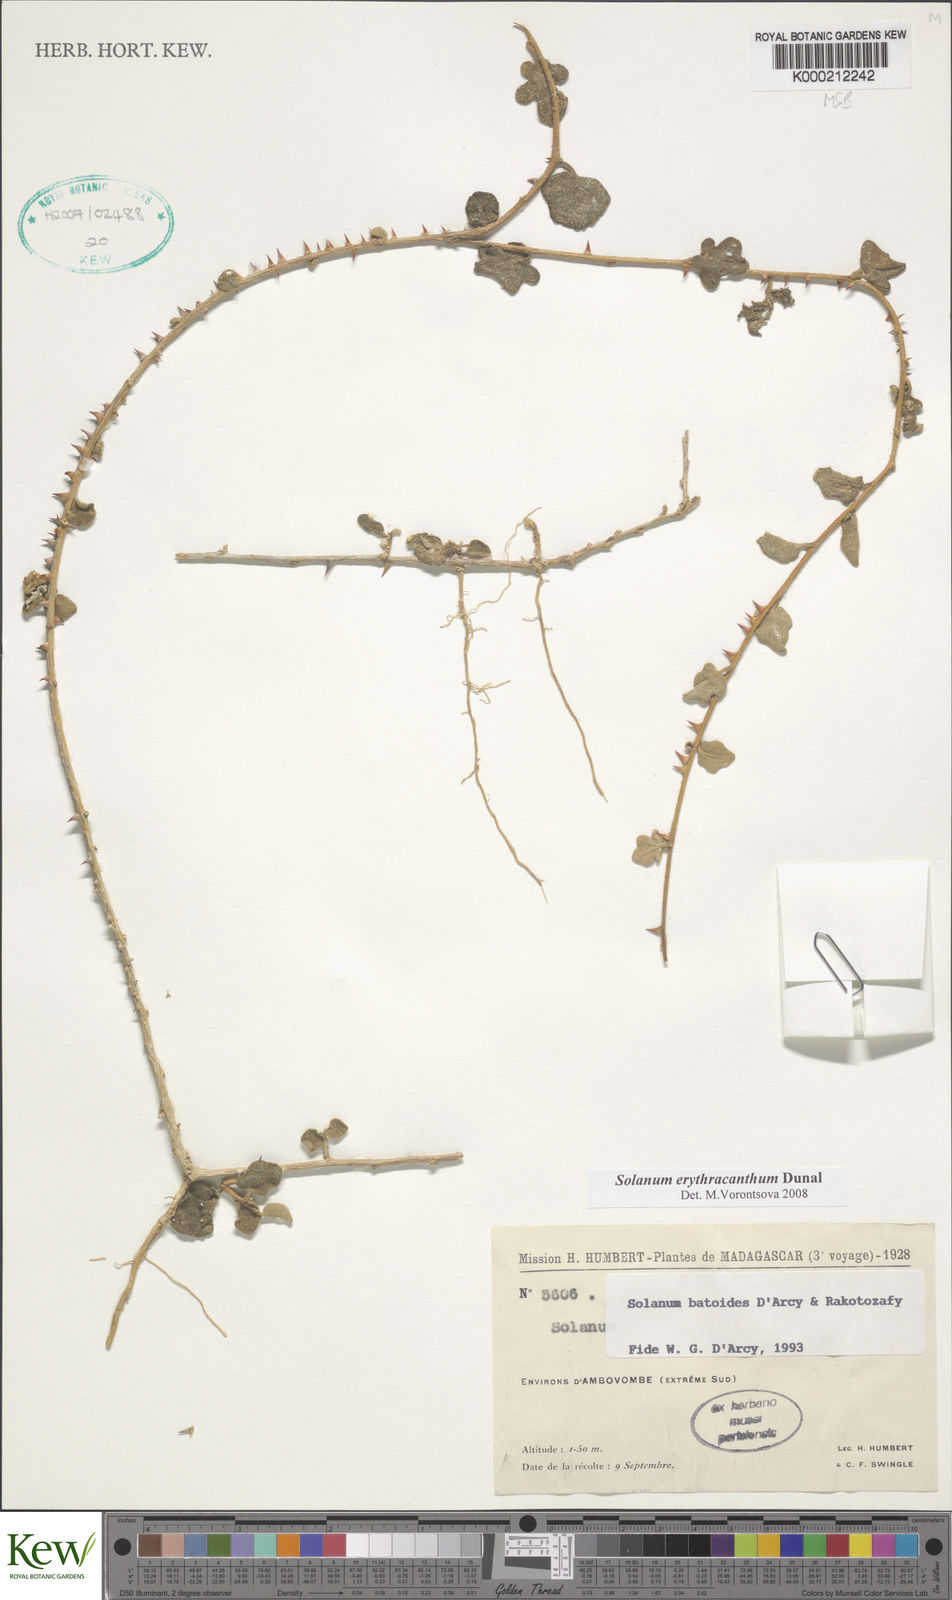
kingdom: Plantae
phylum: Tracheophyta
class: Magnoliopsida
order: Solanales
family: Solanaceae
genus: Solanum
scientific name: Solanum batoides
